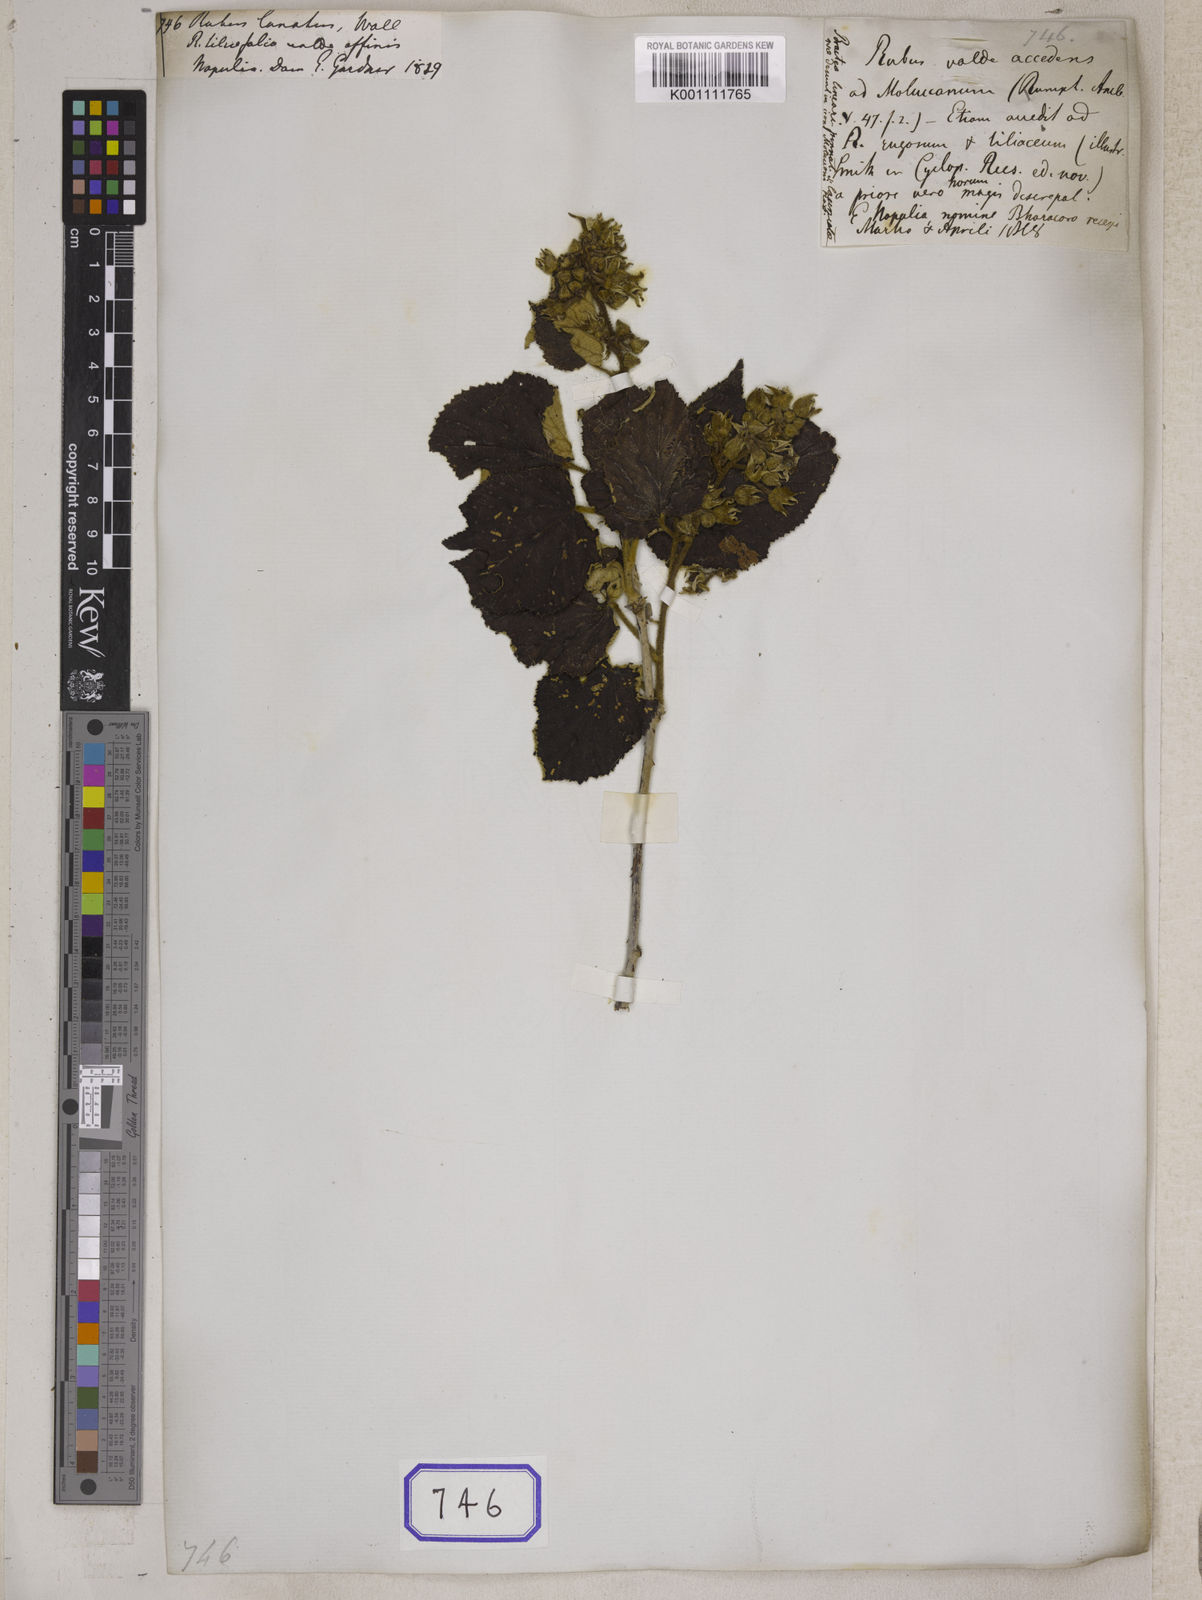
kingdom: Plantae
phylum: Tracheophyta
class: Magnoliopsida
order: Rosales
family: Rosaceae
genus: Rubus
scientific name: Rubus
